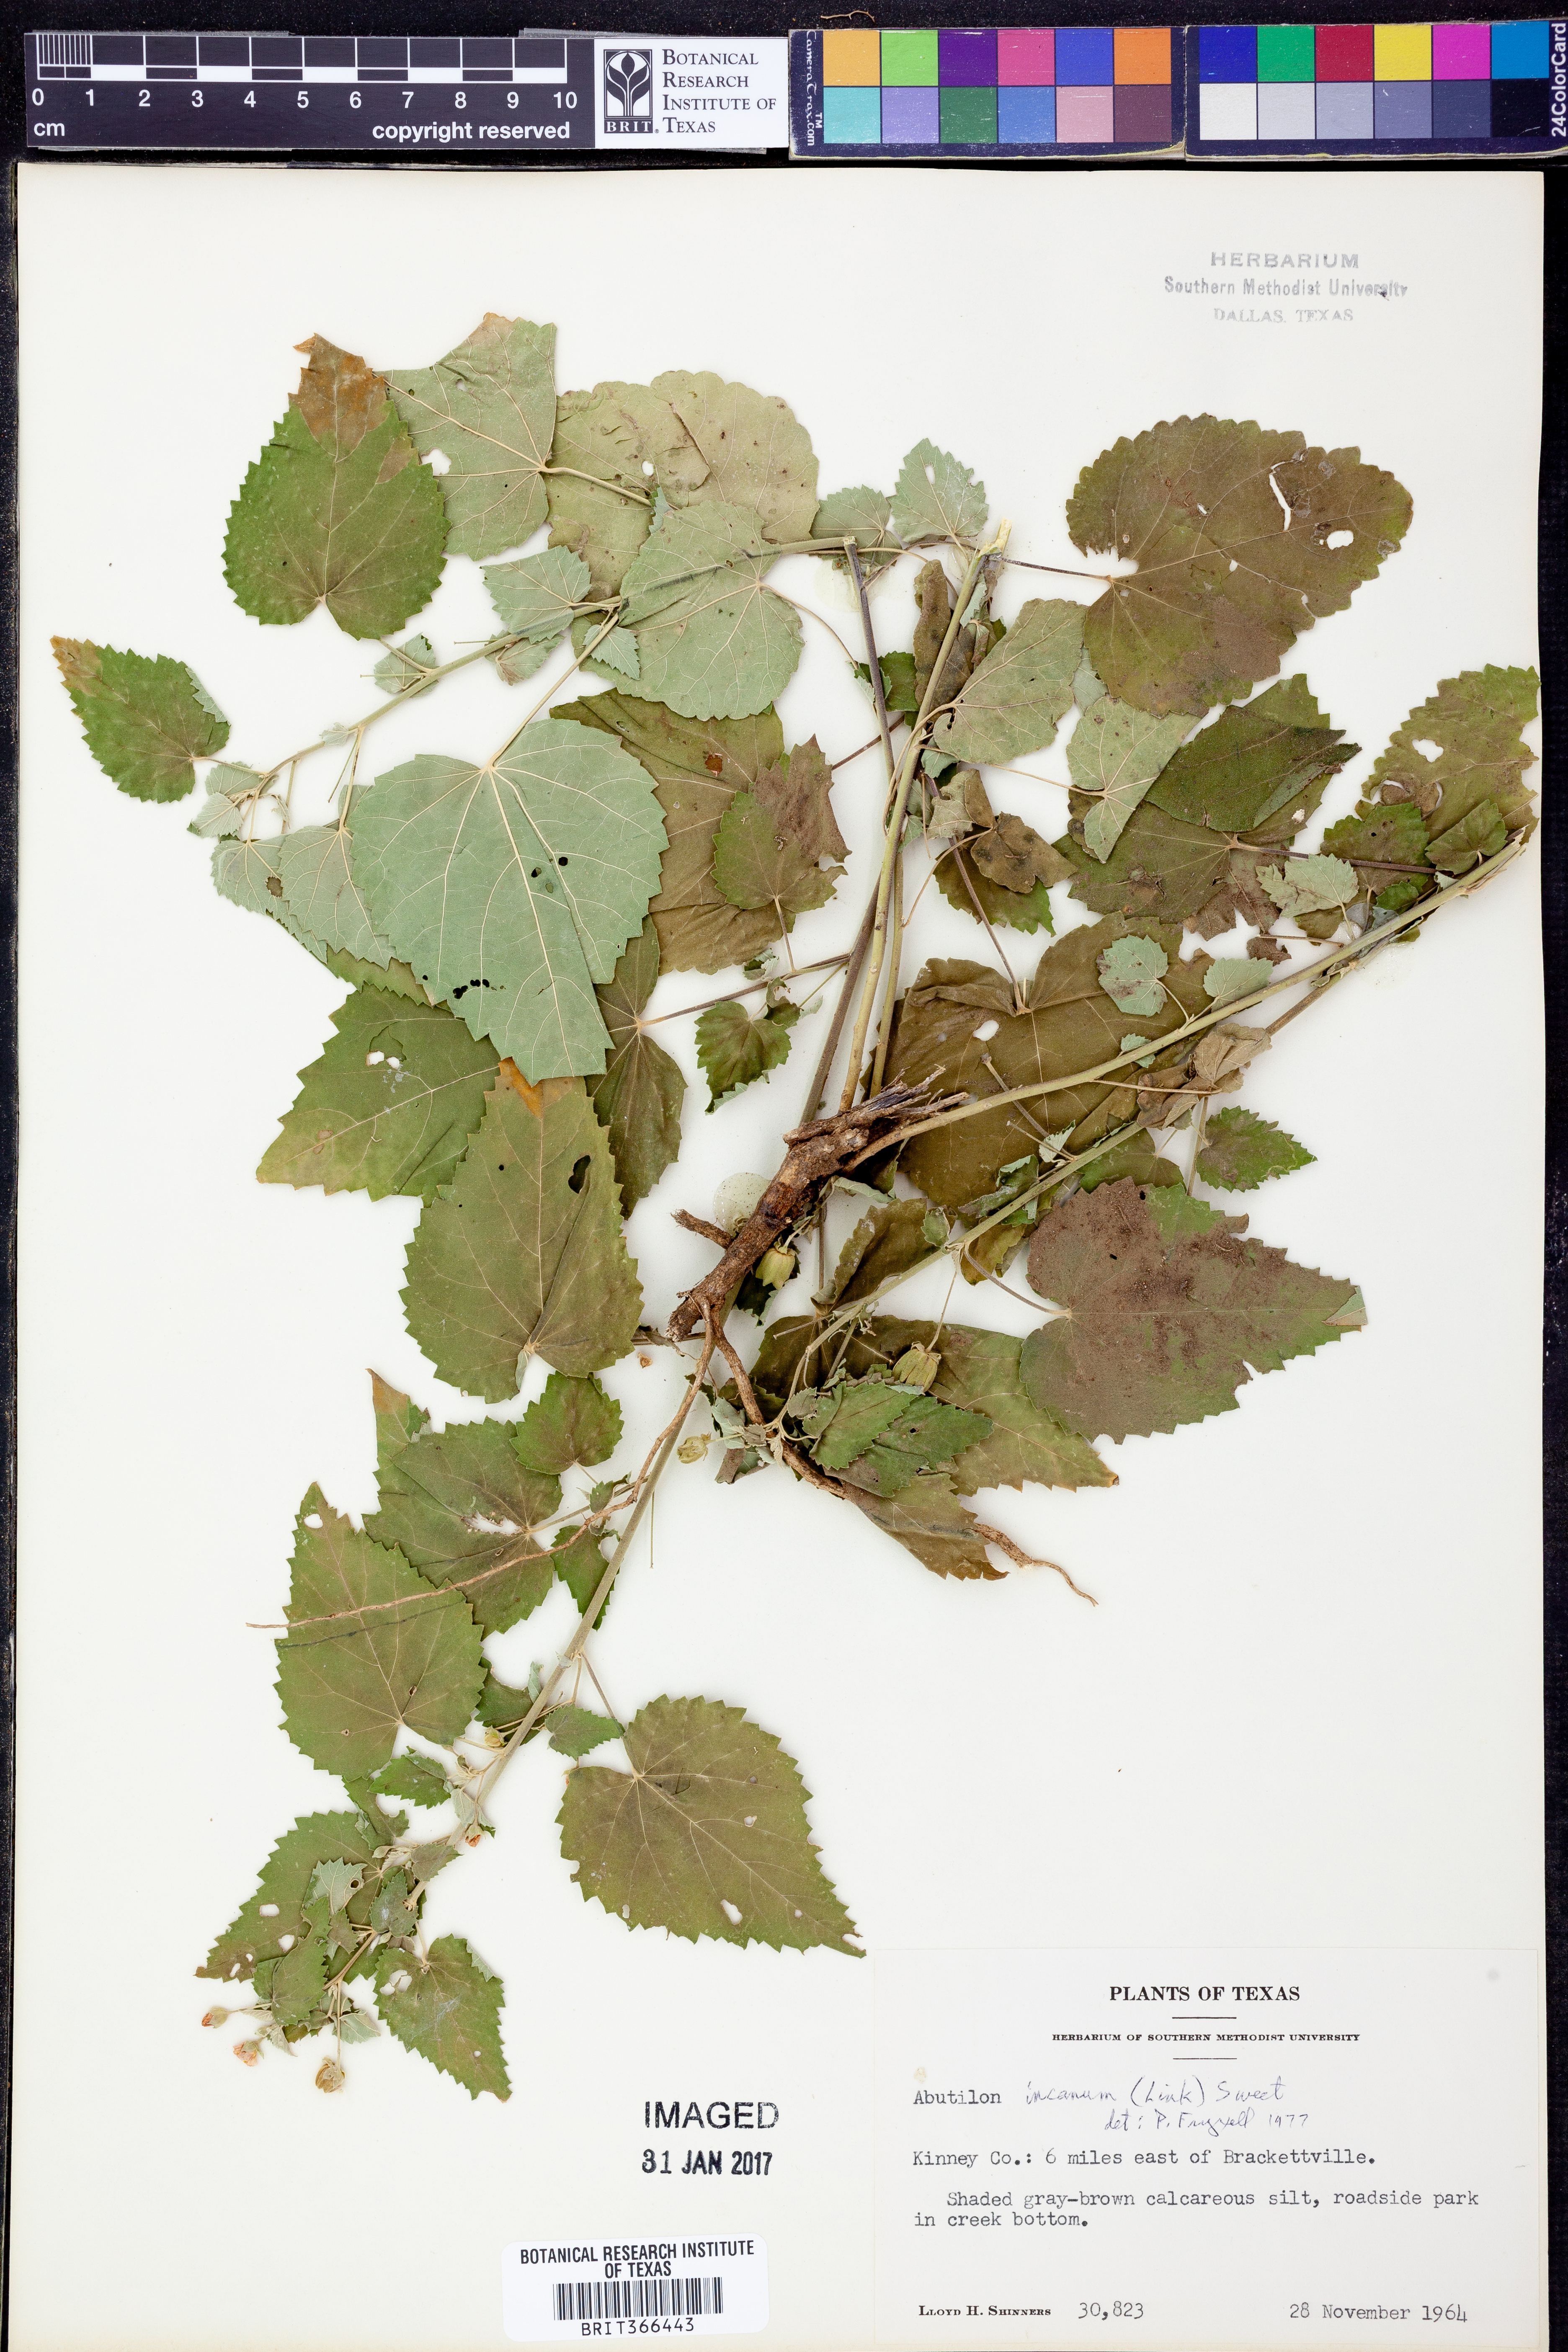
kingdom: Plantae
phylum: Tracheophyta
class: Magnoliopsida
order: Malvales
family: Malvaceae
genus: Abutilon
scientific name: Abutilon incanum
